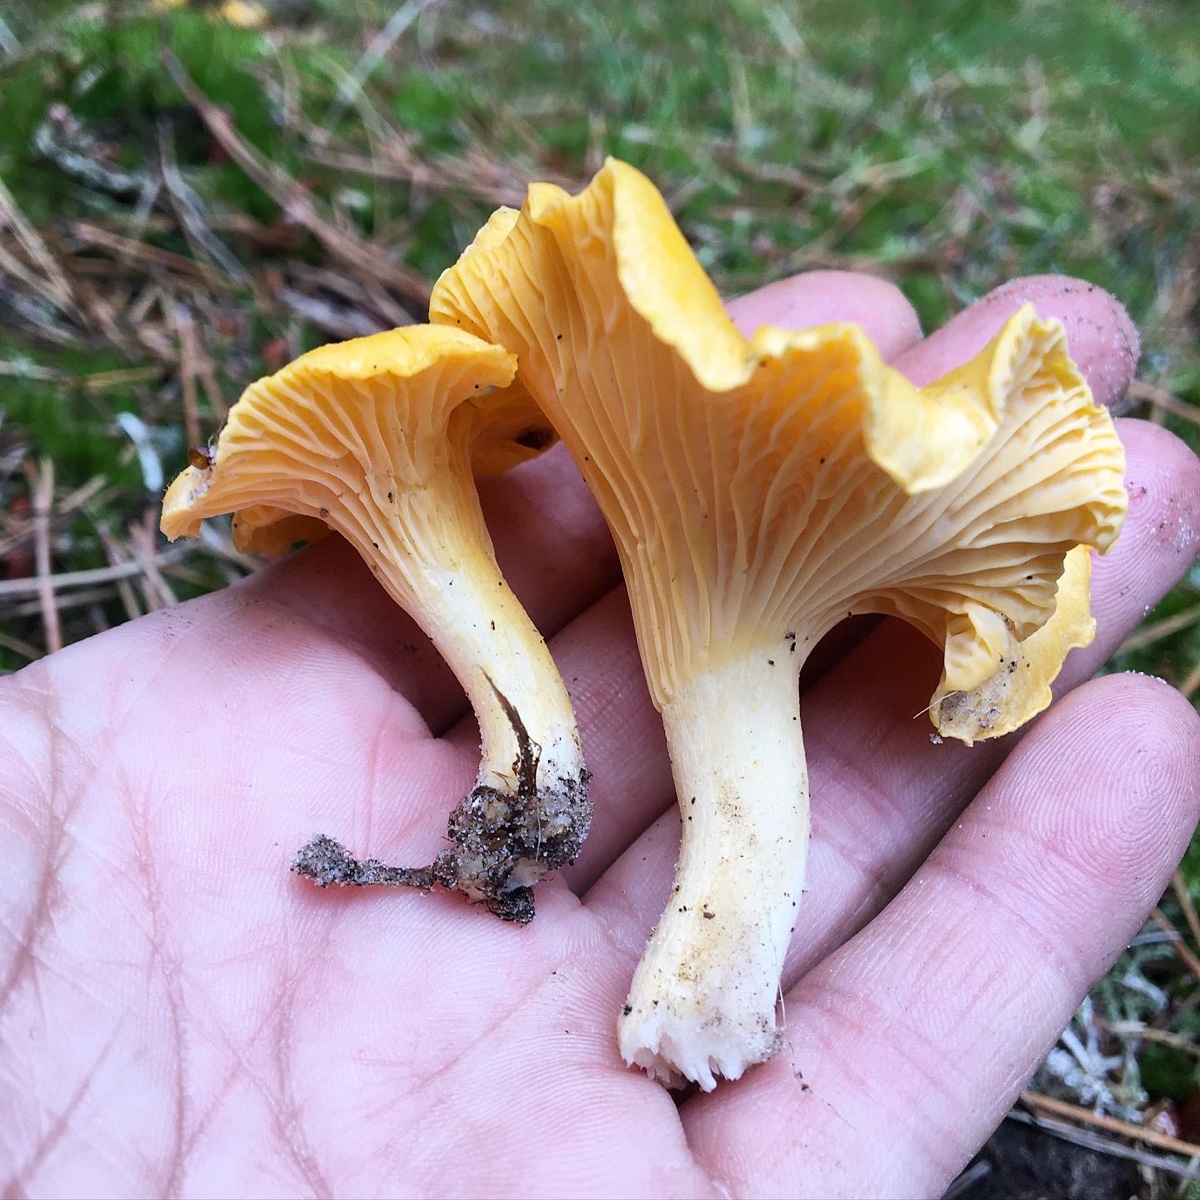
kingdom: Fungi
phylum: Basidiomycota
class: Agaricomycetes
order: Cantharellales
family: Hydnaceae
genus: Cantharellus
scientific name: Cantharellus cibarius
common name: almindelig kantarel
